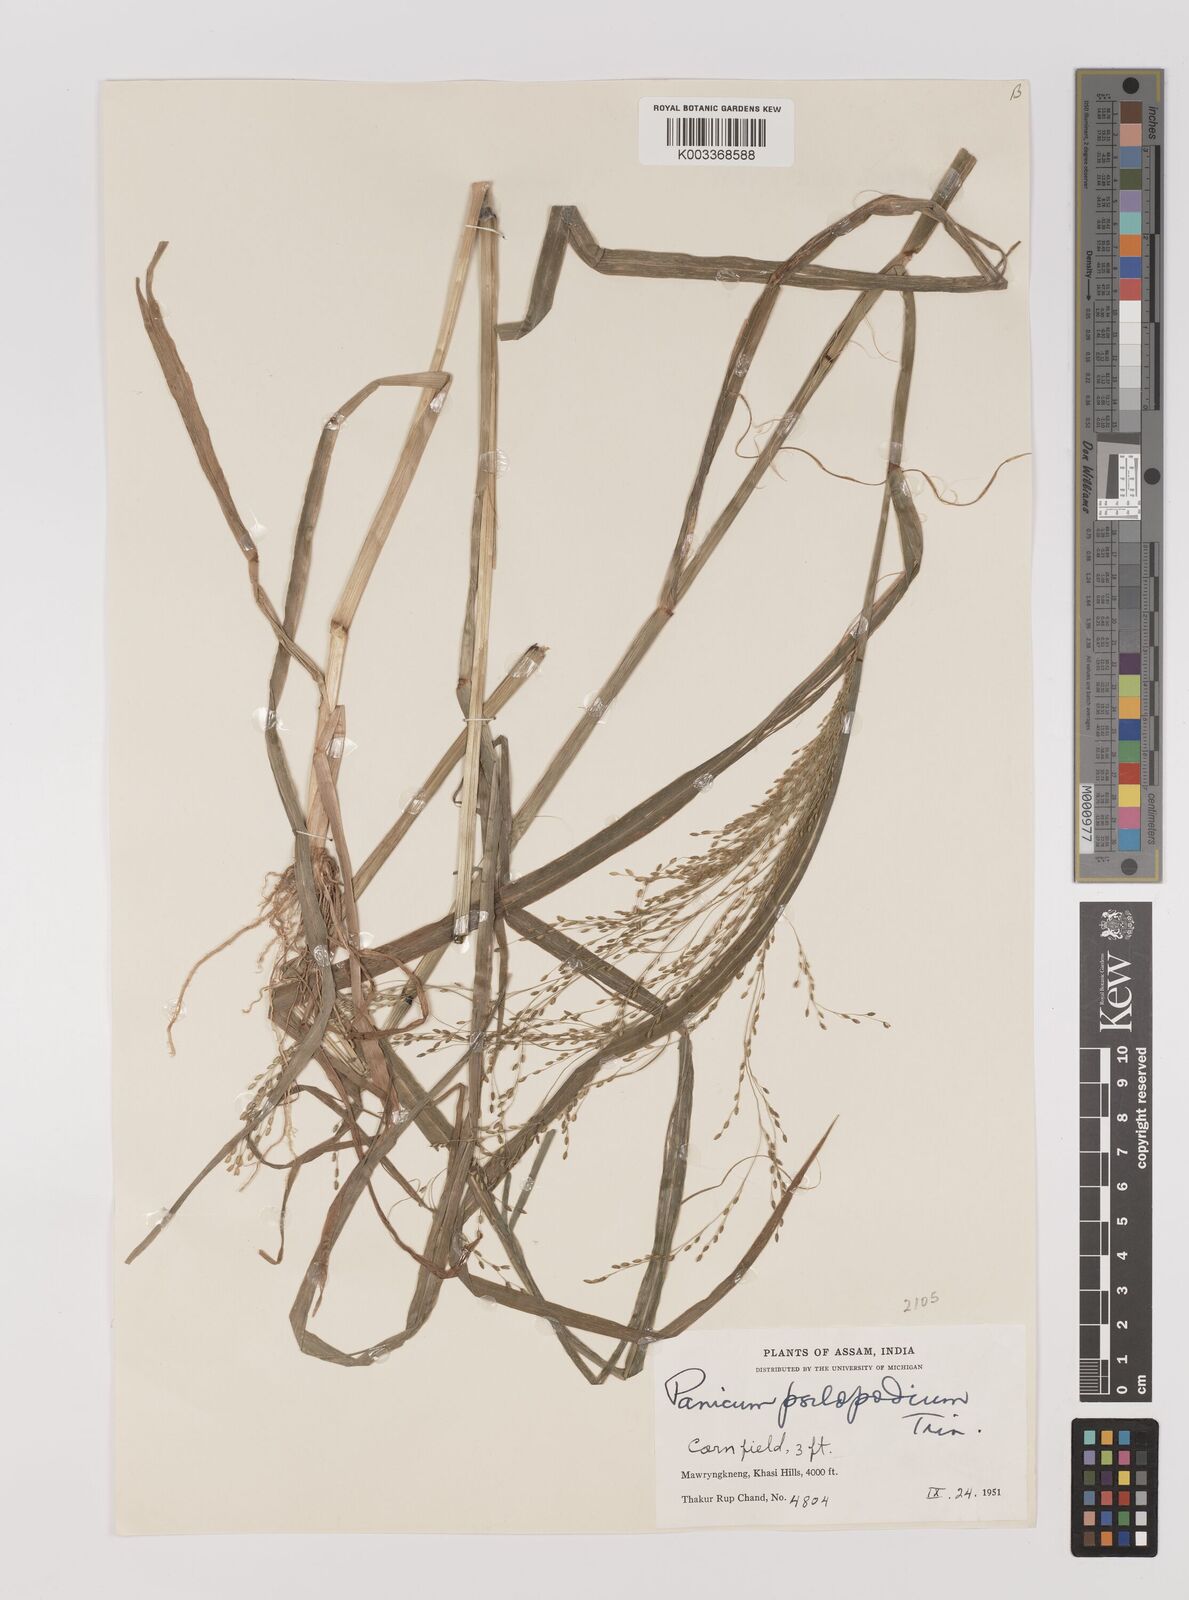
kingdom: Plantae
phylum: Tracheophyta
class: Liliopsida
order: Poales
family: Poaceae
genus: Panicum
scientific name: Panicum sumatrense
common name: Little millet
